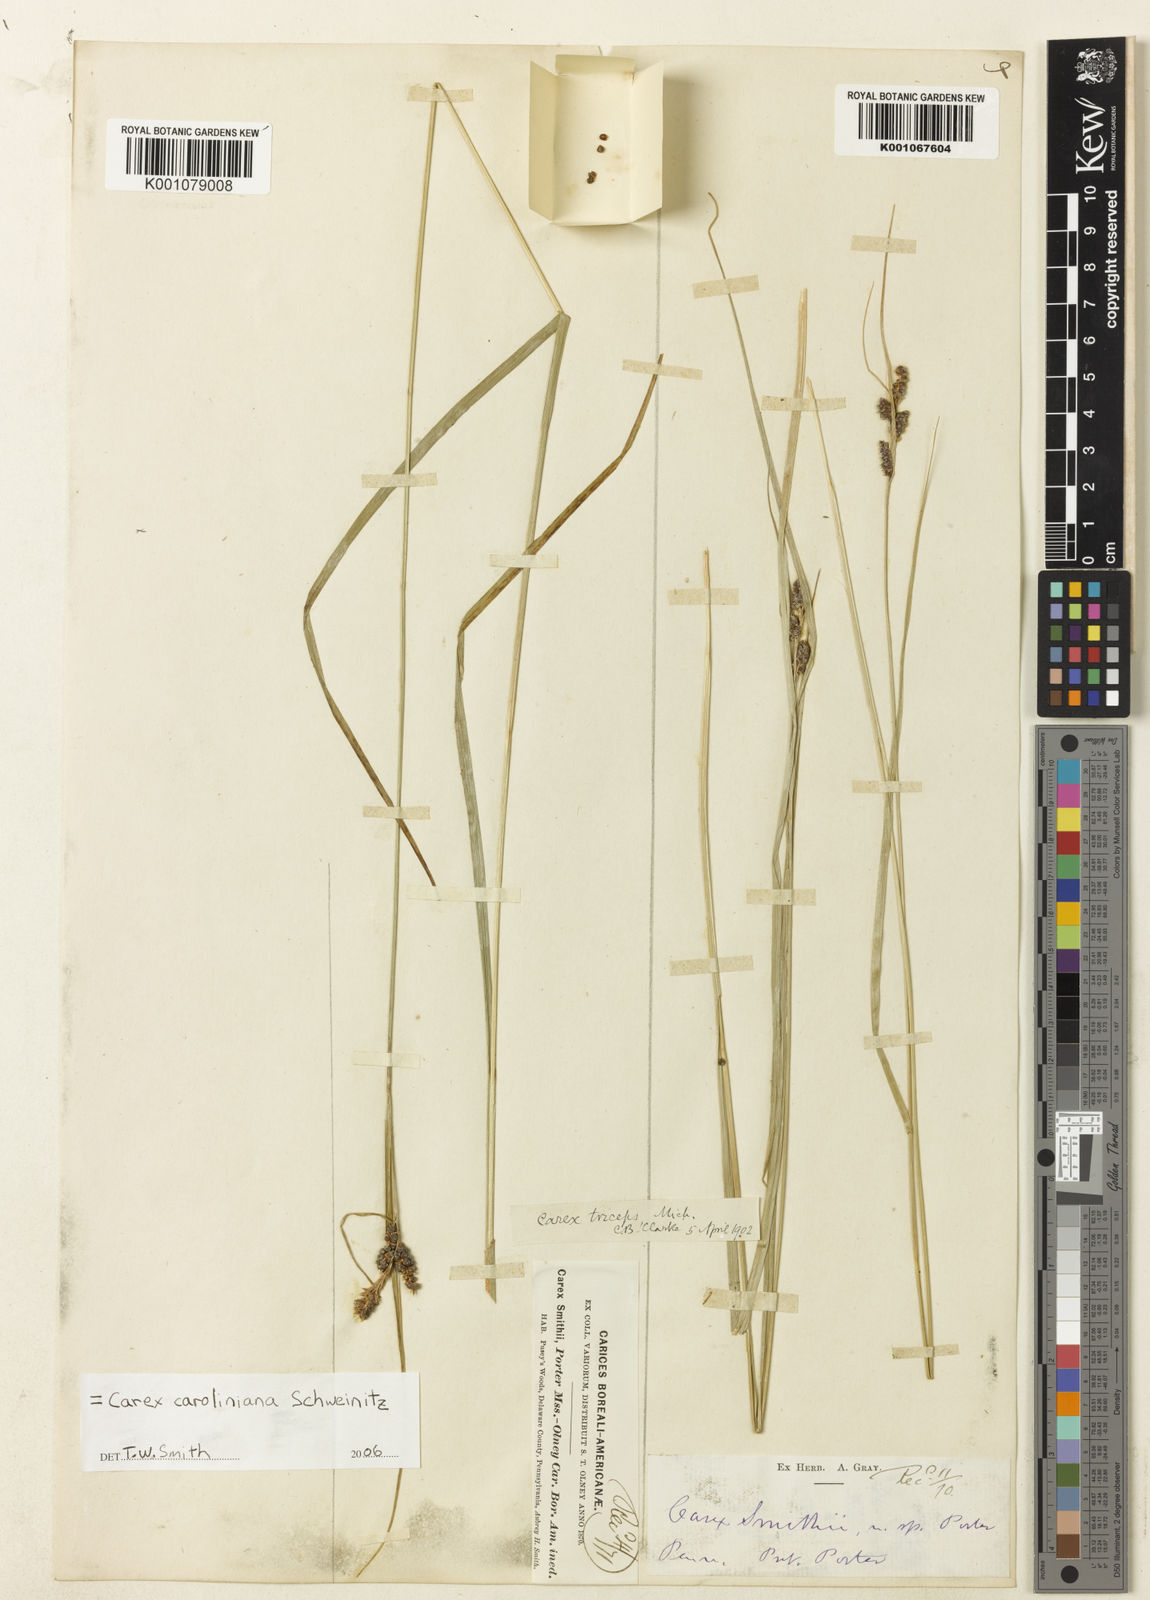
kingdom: Plantae
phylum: Tracheophyta
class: Liliopsida
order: Poales
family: Cyperaceae
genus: Carex
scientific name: Carex amplifolia
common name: Ample-leaved sedge
